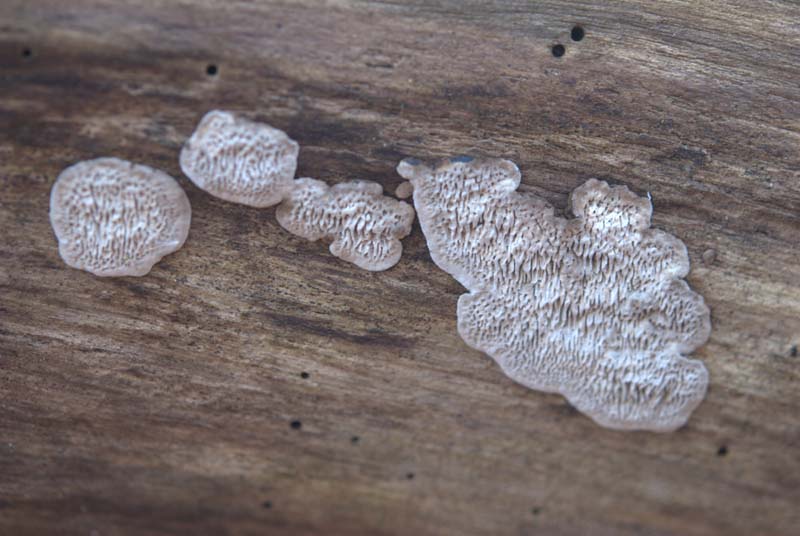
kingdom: Fungi
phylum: Basidiomycota
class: Agaricomycetes
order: Polyporales
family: Polyporaceae
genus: Podofomes
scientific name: Podofomes mollis
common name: blød begporesvamp
